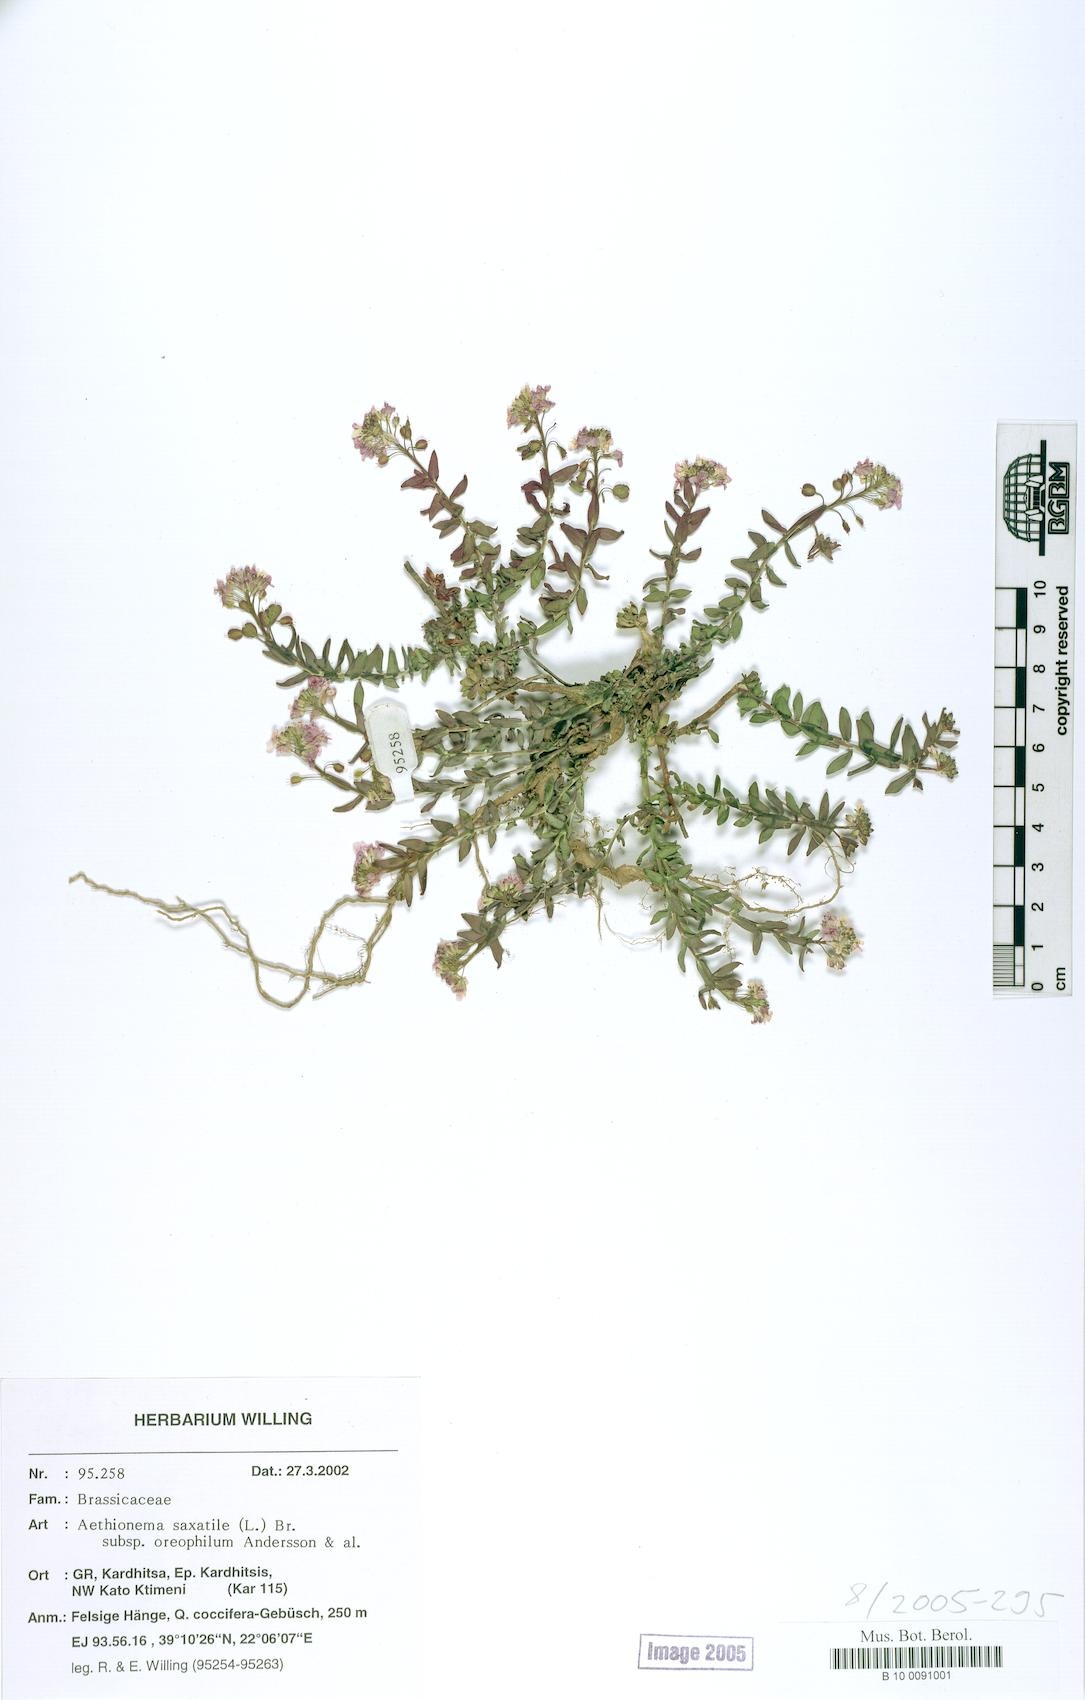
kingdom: Plantae
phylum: Tracheophyta
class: Magnoliopsida
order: Brassicales
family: Brassicaceae
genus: Aethionema
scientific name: Aethionema saxatile
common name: Burnt candytuft
